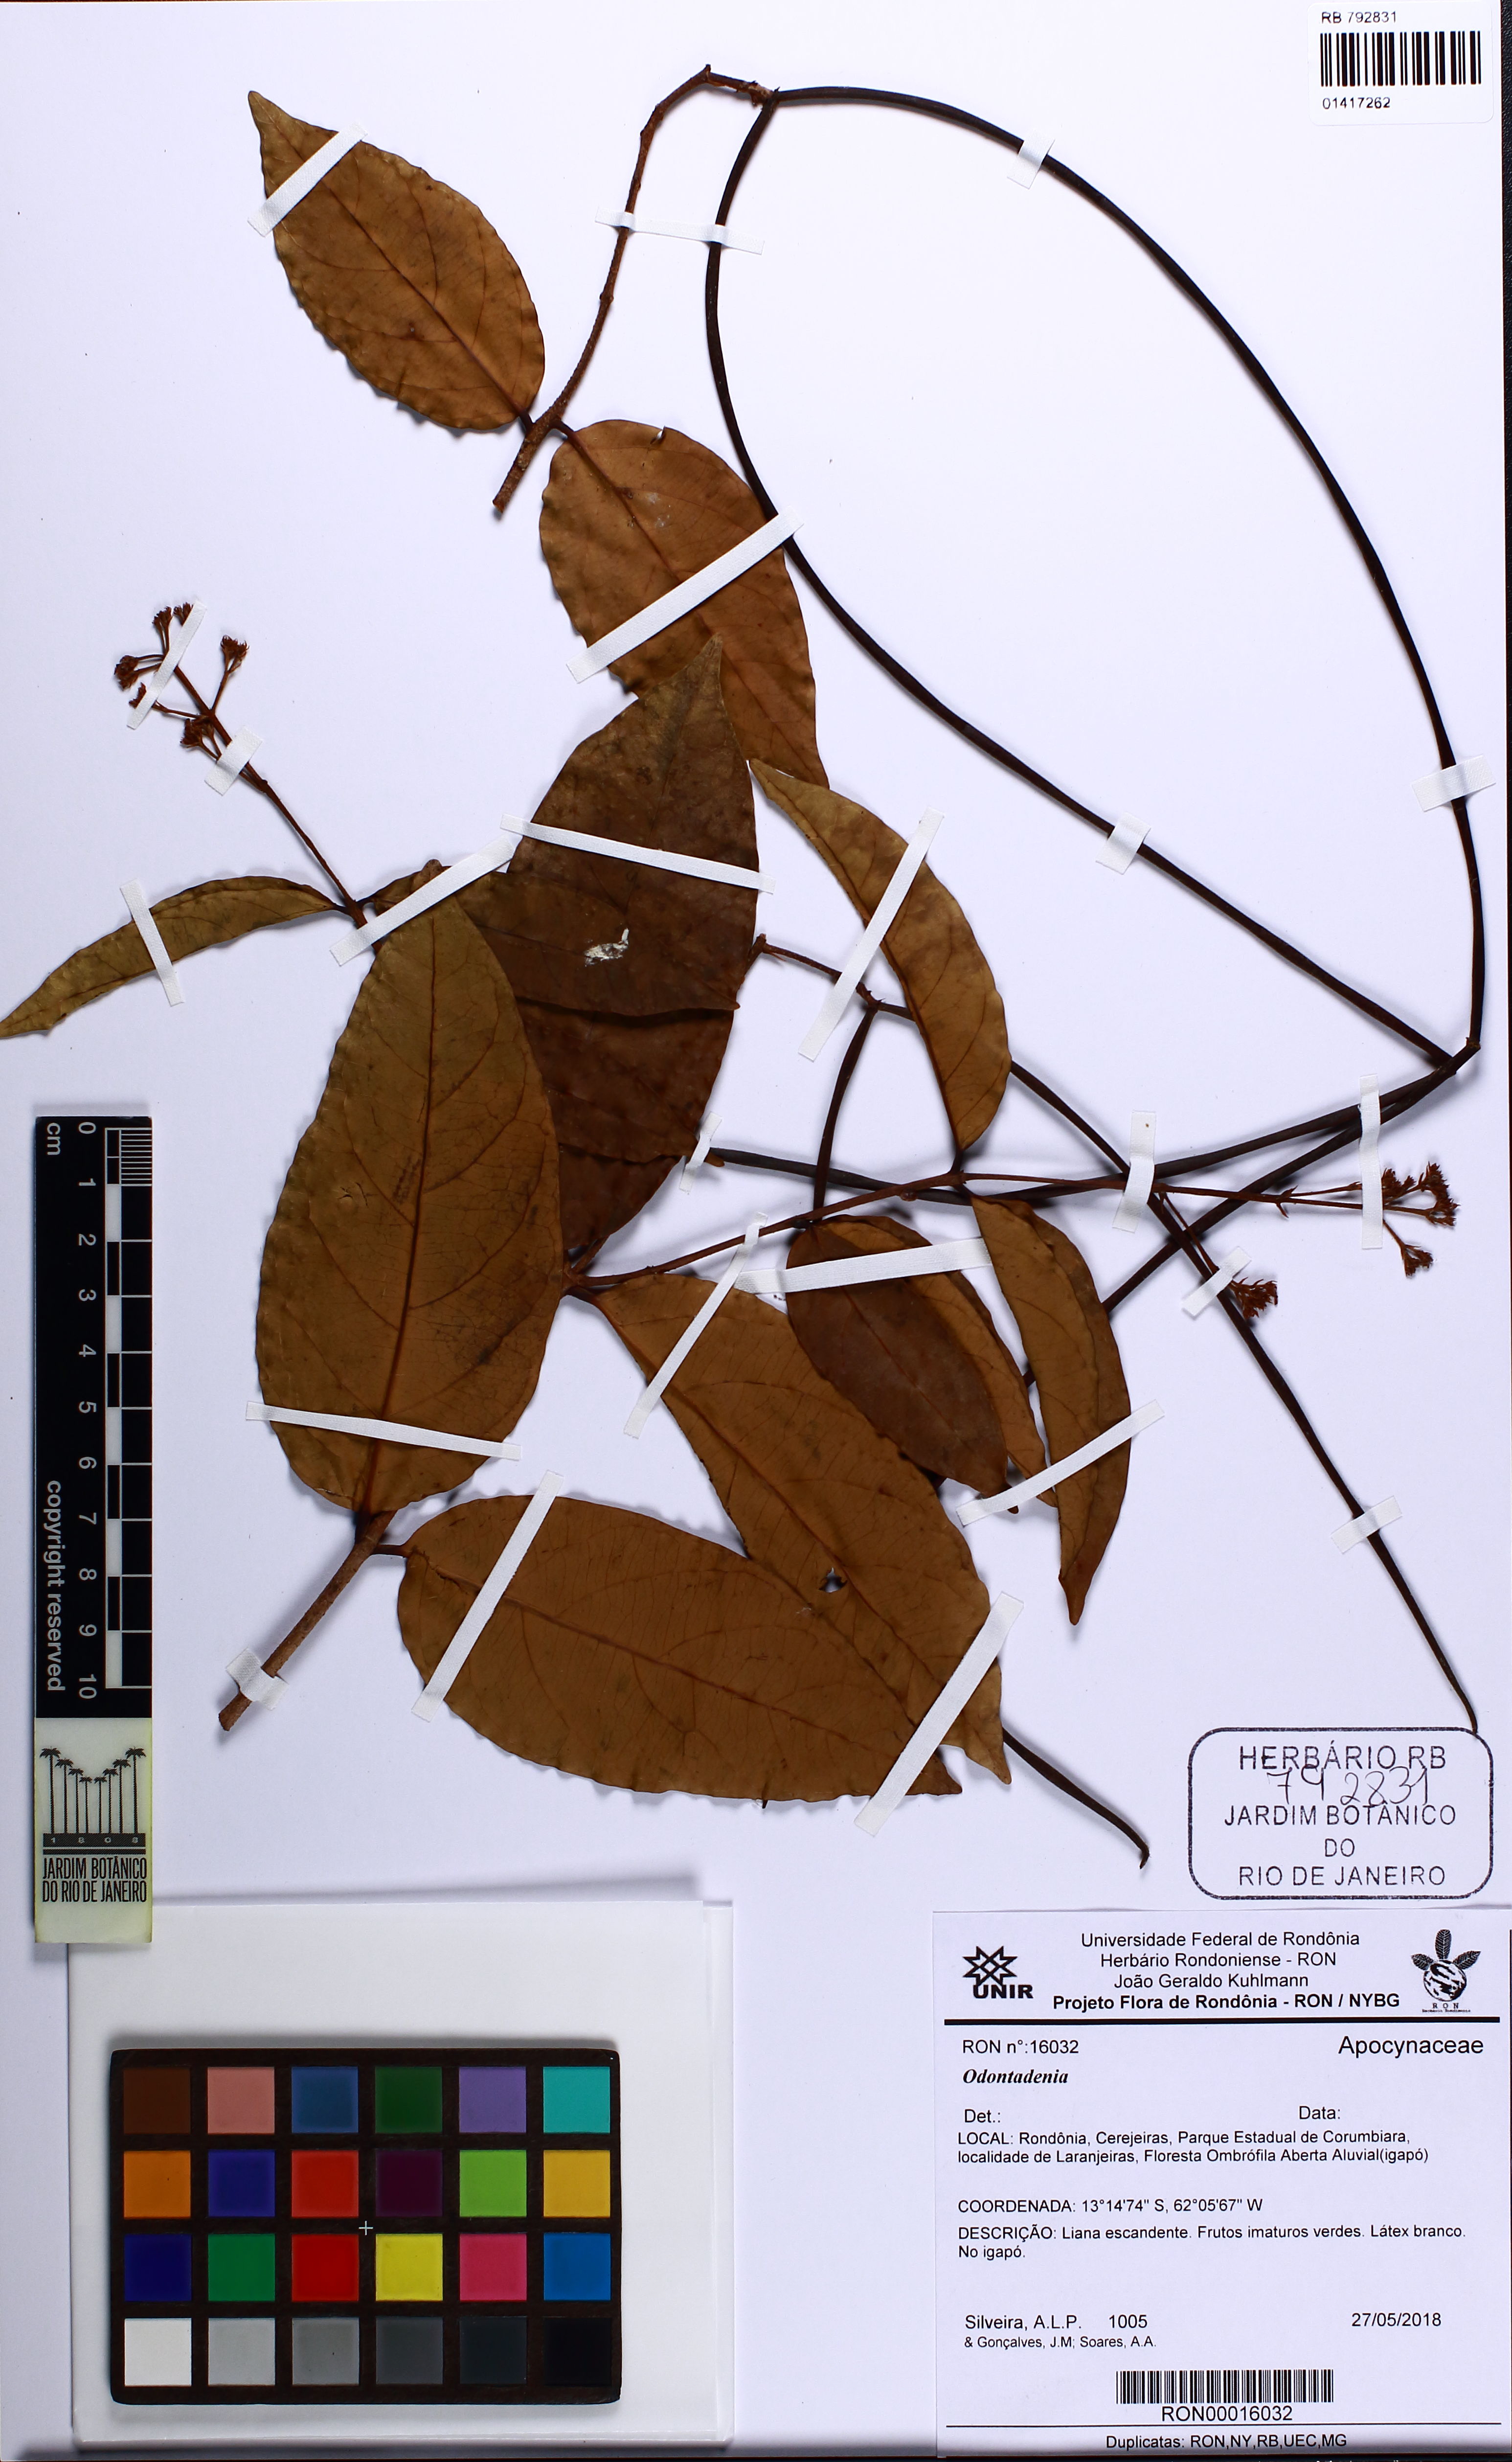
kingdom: Plantae
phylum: Tracheophyta
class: Magnoliopsida
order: Gentianales
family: Apocynaceae
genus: Odontadenia
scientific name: Odontadenia
